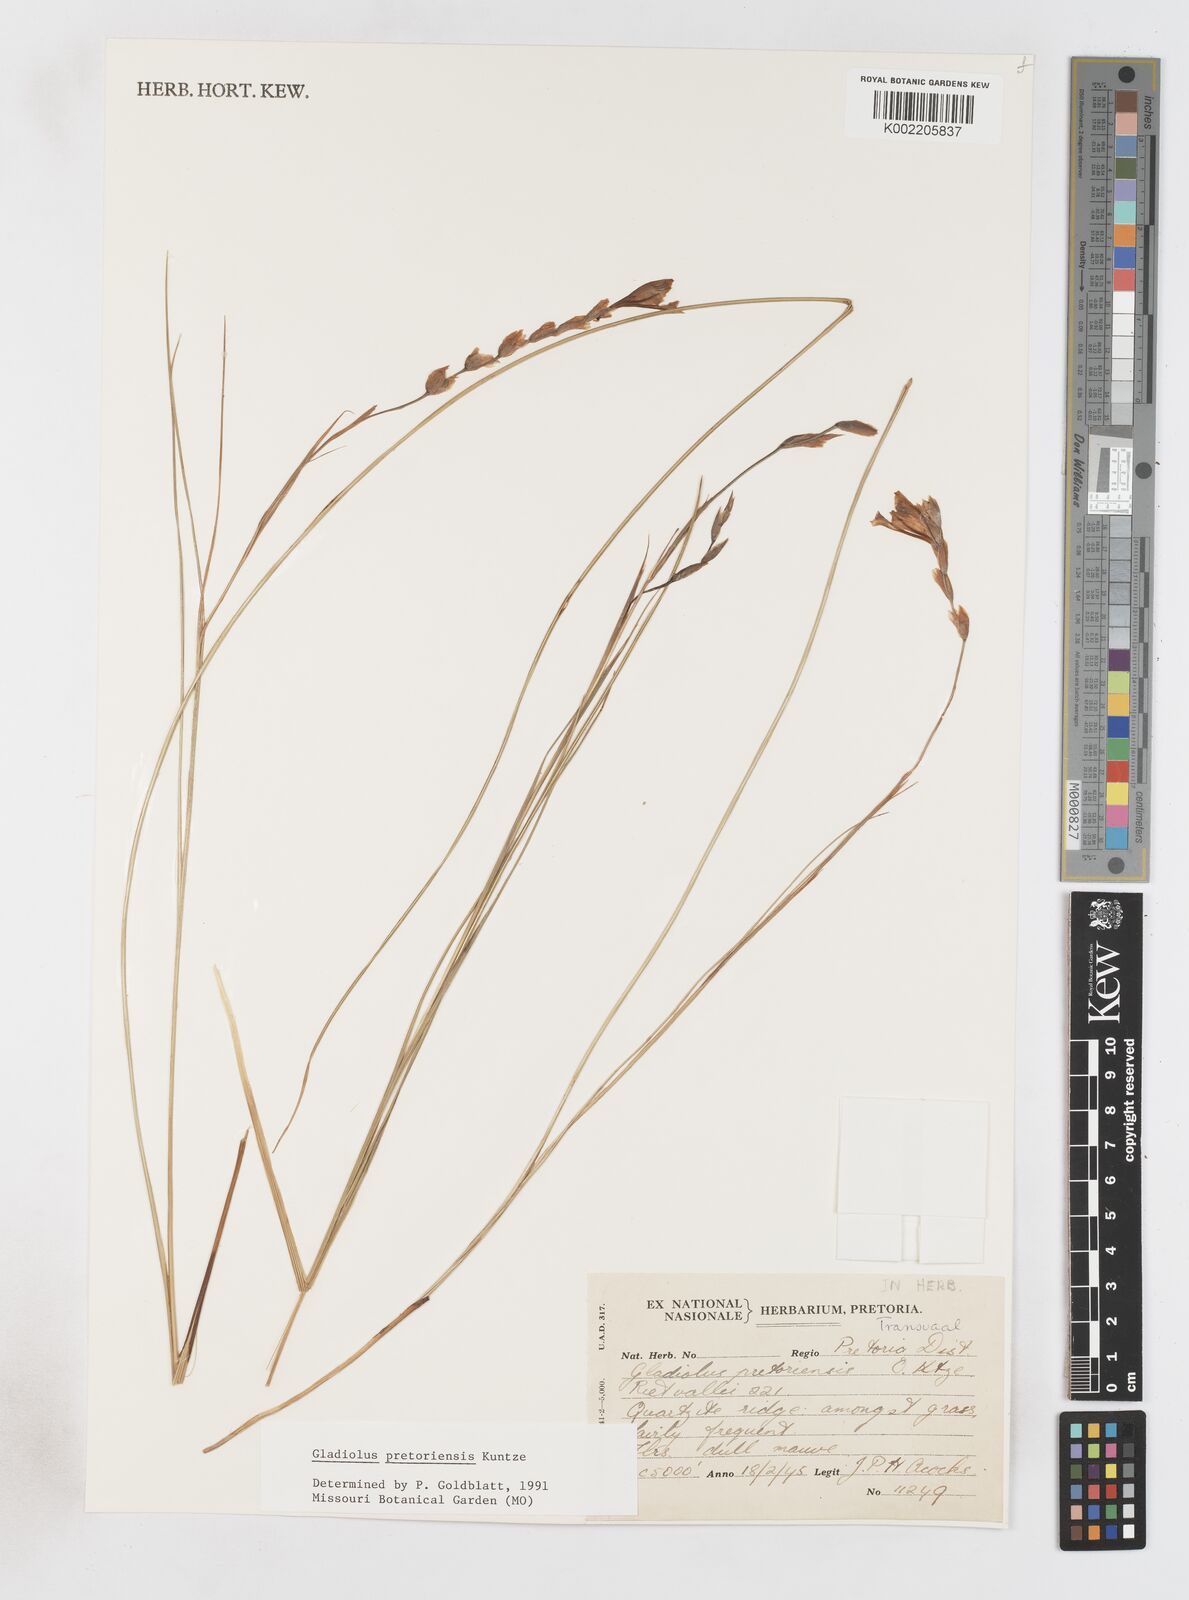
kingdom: Plantae
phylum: Tracheophyta
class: Liliopsida
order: Asparagales
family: Iridaceae
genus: Gladiolus
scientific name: Gladiolus pretoriensis
